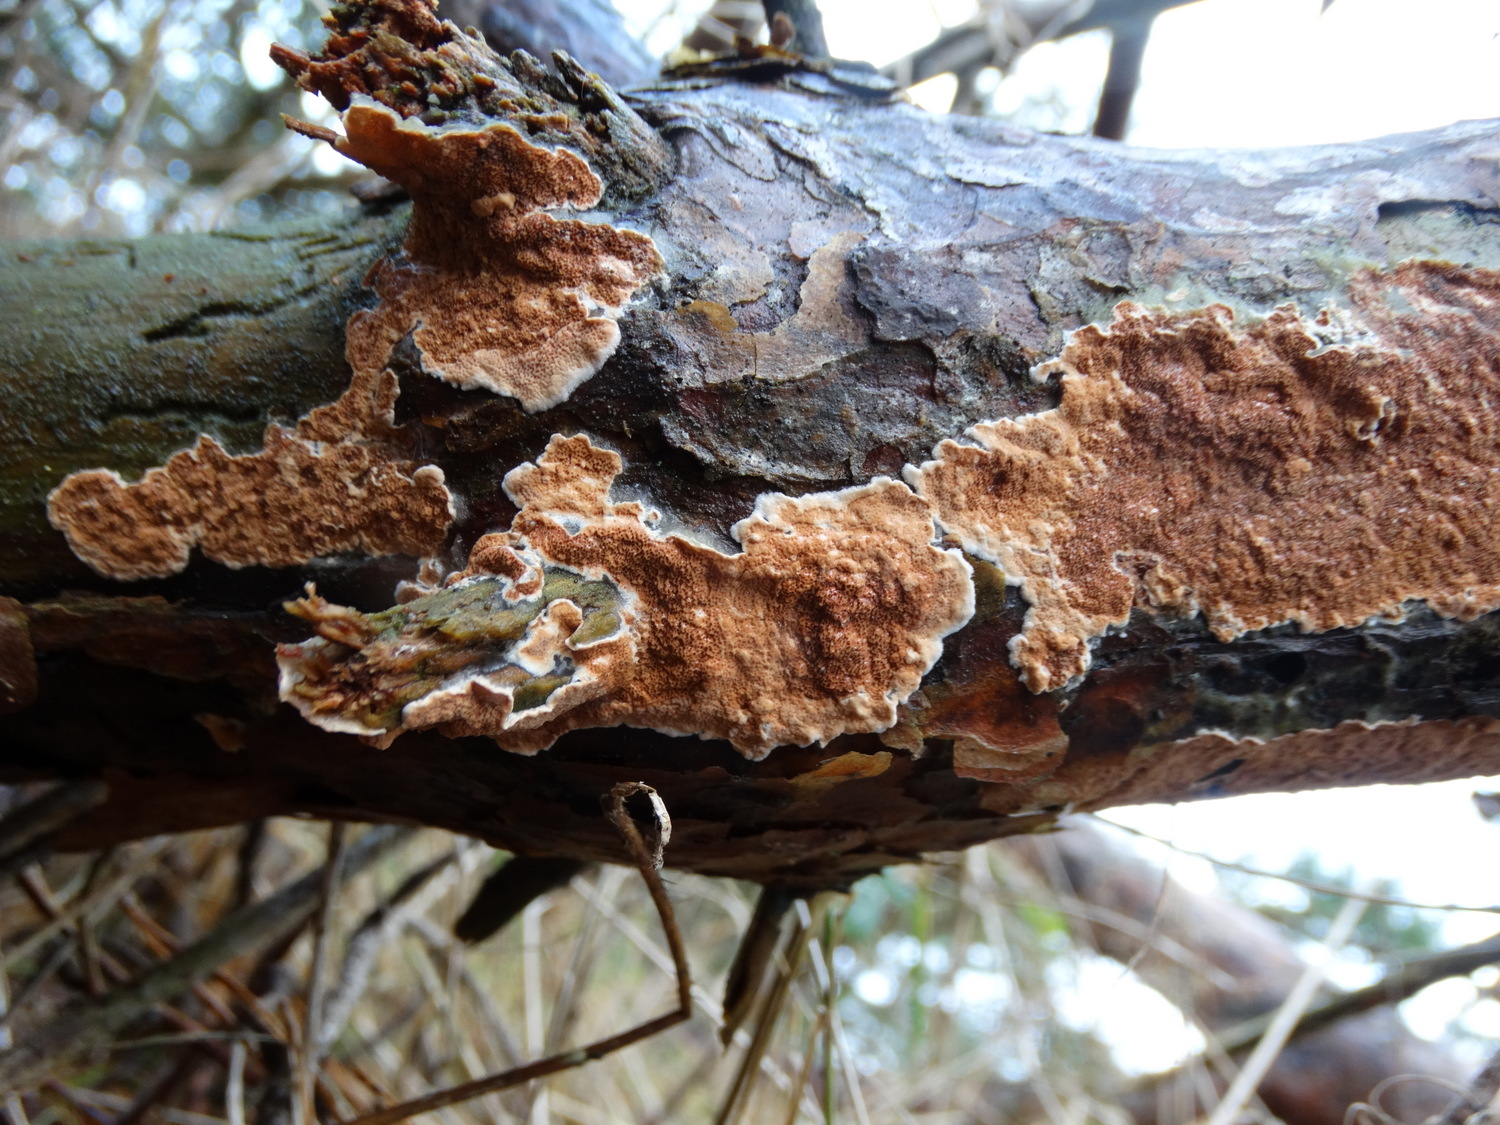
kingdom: Fungi
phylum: Basidiomycota
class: Agaricomycetes
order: Polyporales
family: Irpicaceae
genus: Meruliopsis
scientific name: Meruliopsis taxicola
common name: purpurbrun foldporesvamp
